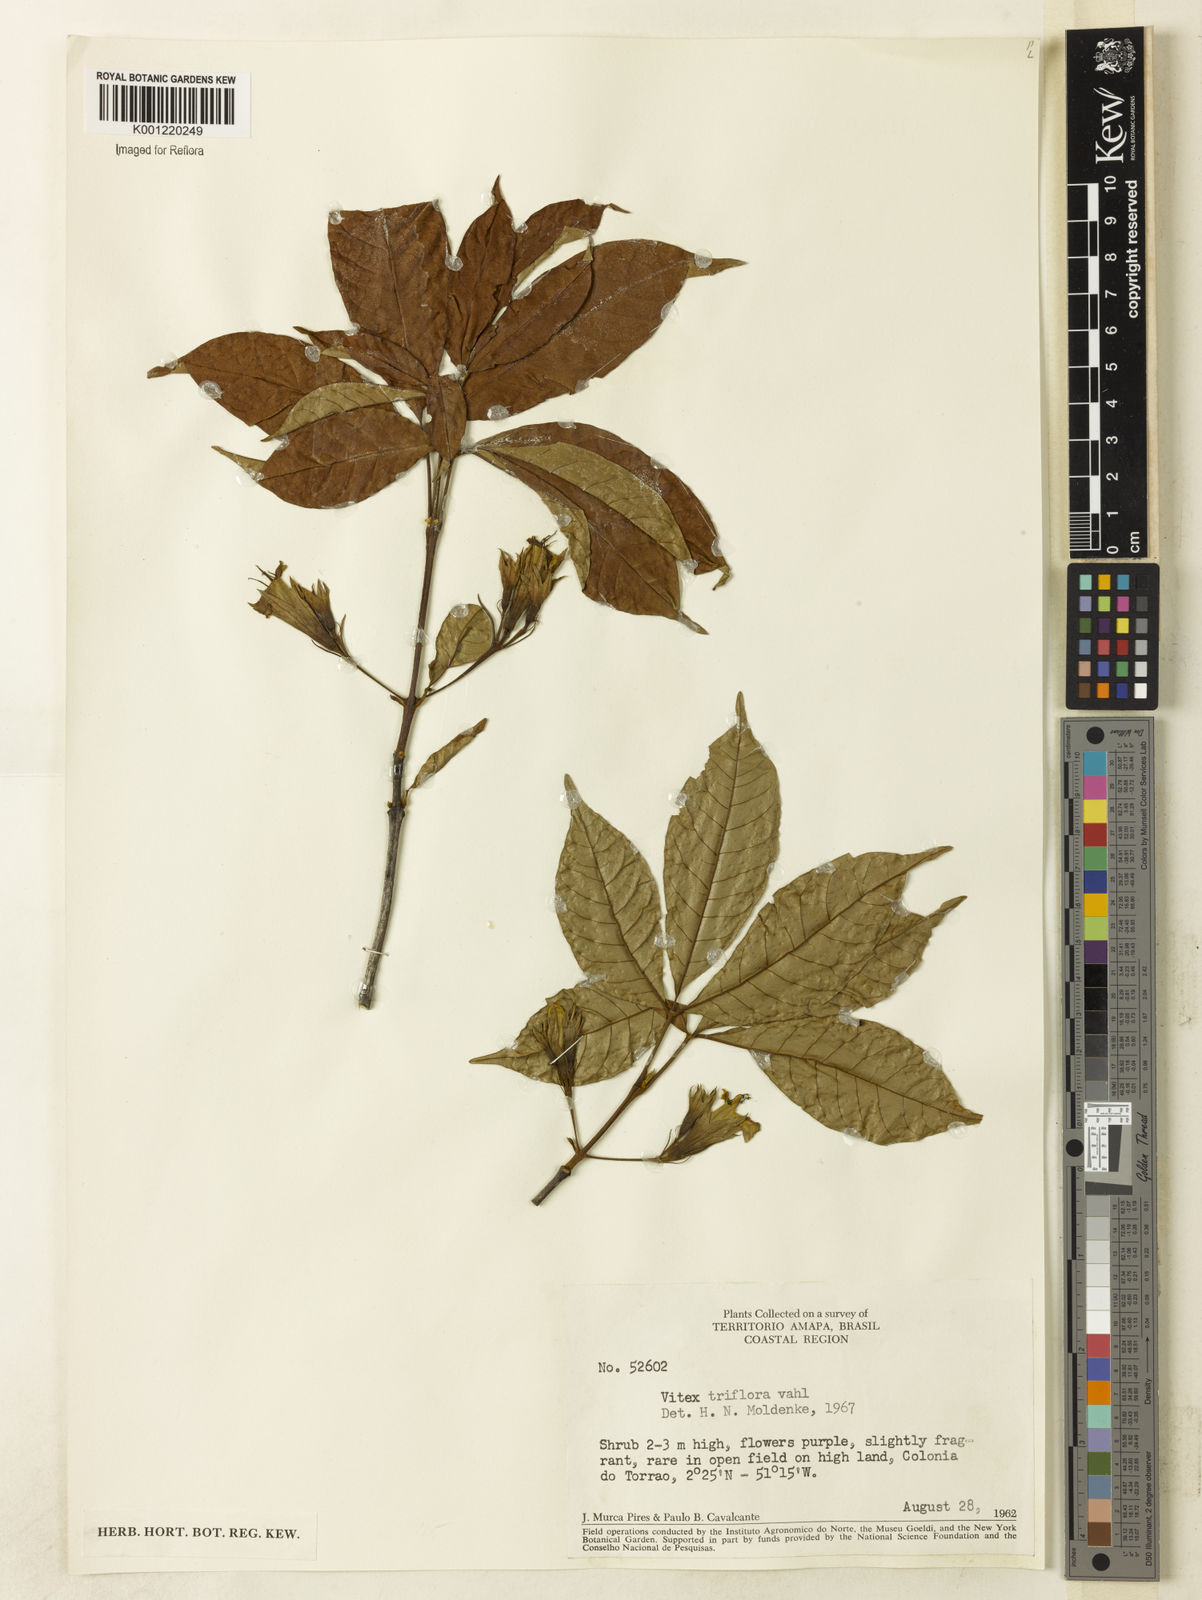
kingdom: Plantae
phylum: Tracheophyta
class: Magnoliopsida
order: Lamiales
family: Lamiaceae
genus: Vitex
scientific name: Vitex triflora
